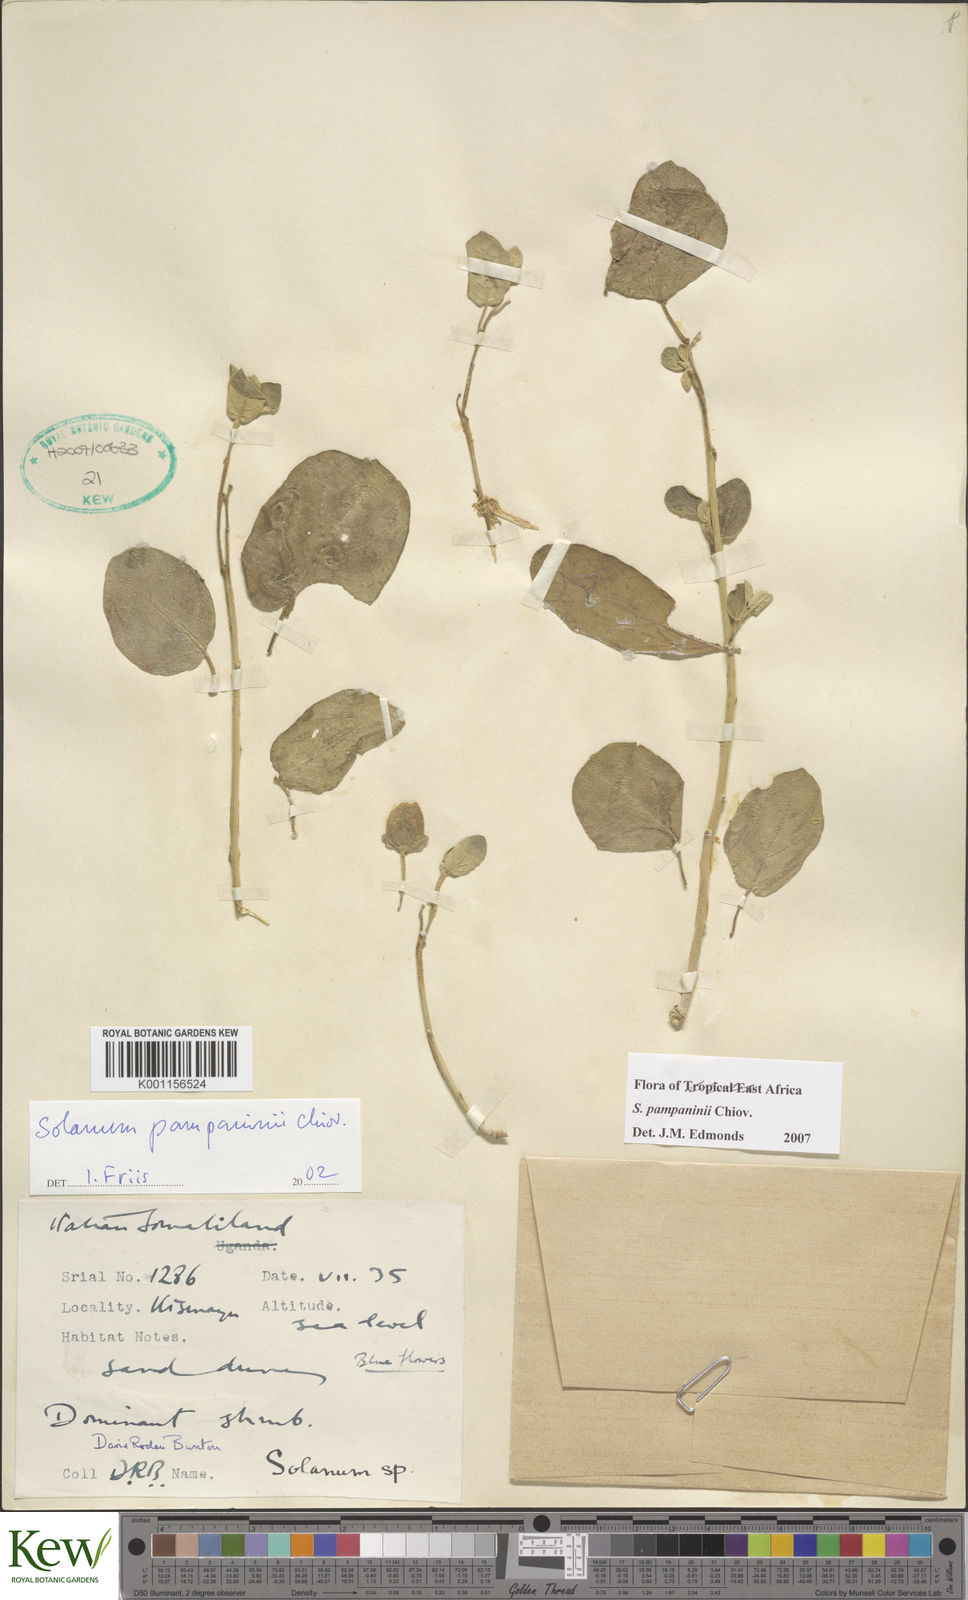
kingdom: Plantae
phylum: Tracheophyta
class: Magnoliopsida
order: Solanales
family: Solanaceae
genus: Solanum
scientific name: Solanum pampaninii
